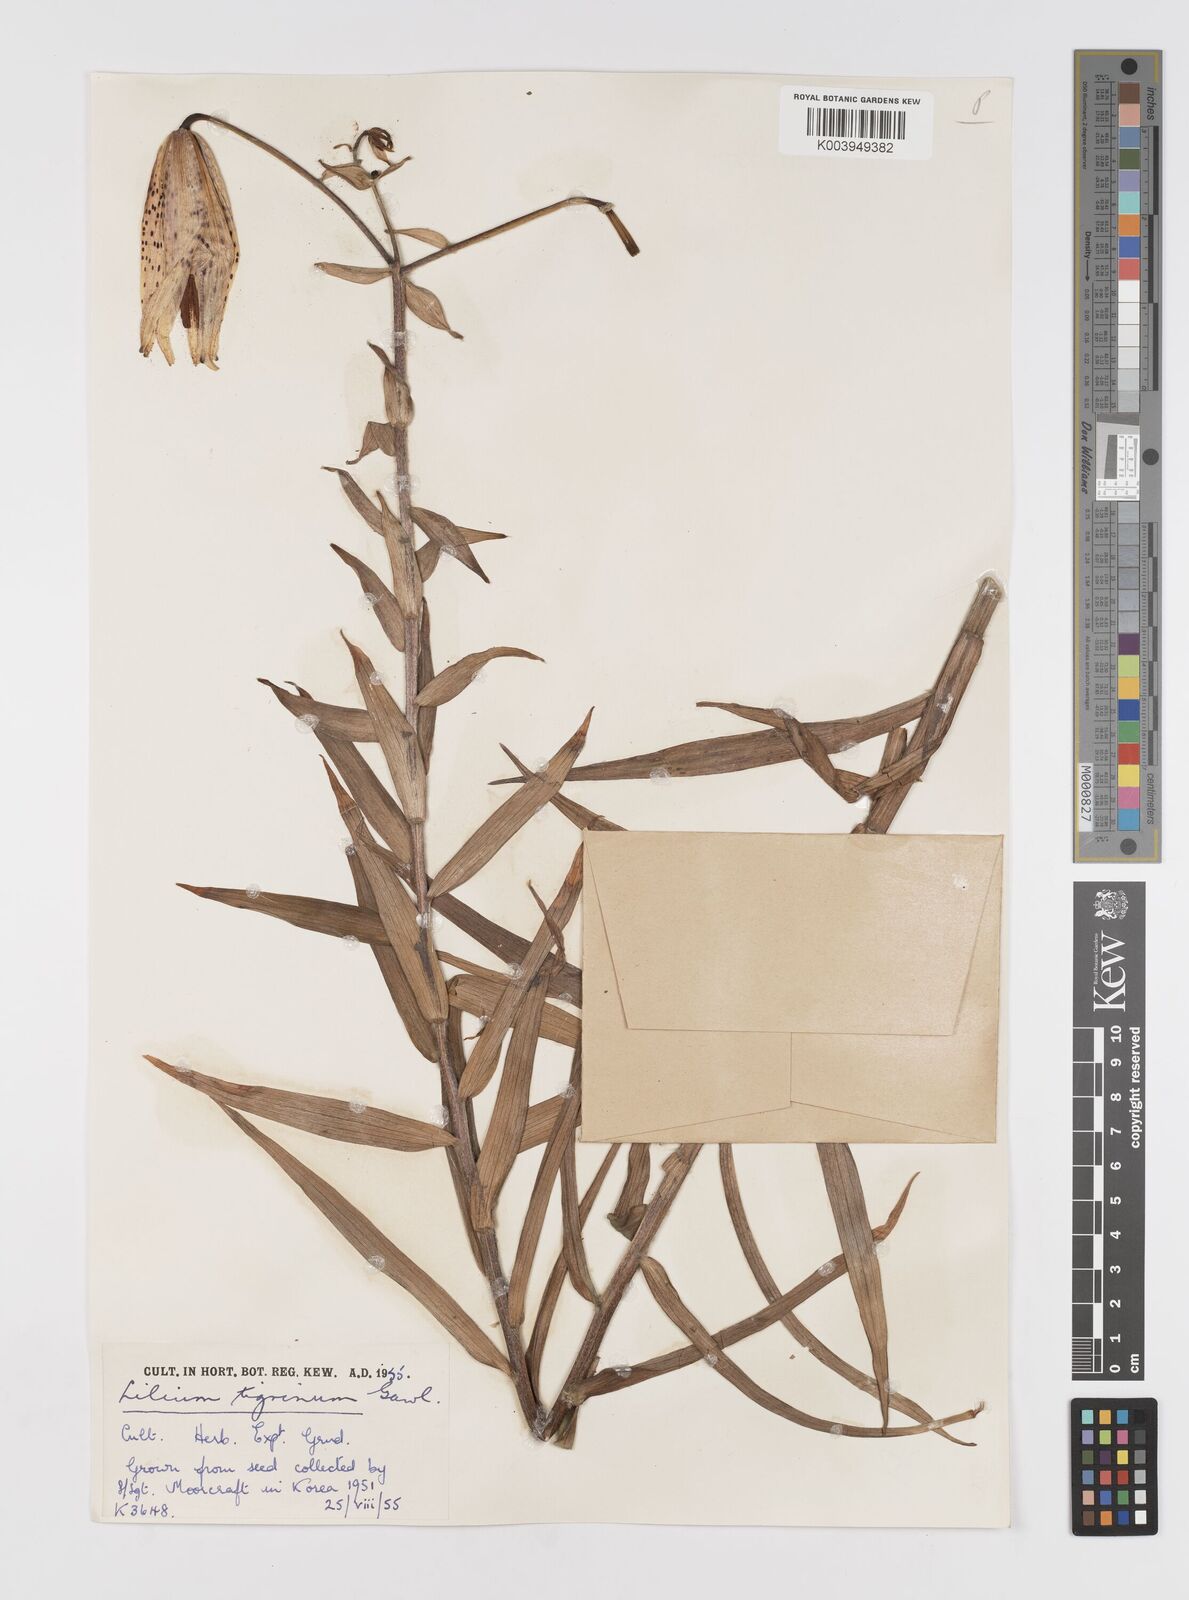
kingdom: Plantae
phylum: Tracheophyta
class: Liliopsida
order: Liliales
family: Liliaceae
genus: Lilium
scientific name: Lilium lancifolium
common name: Tiger lily
